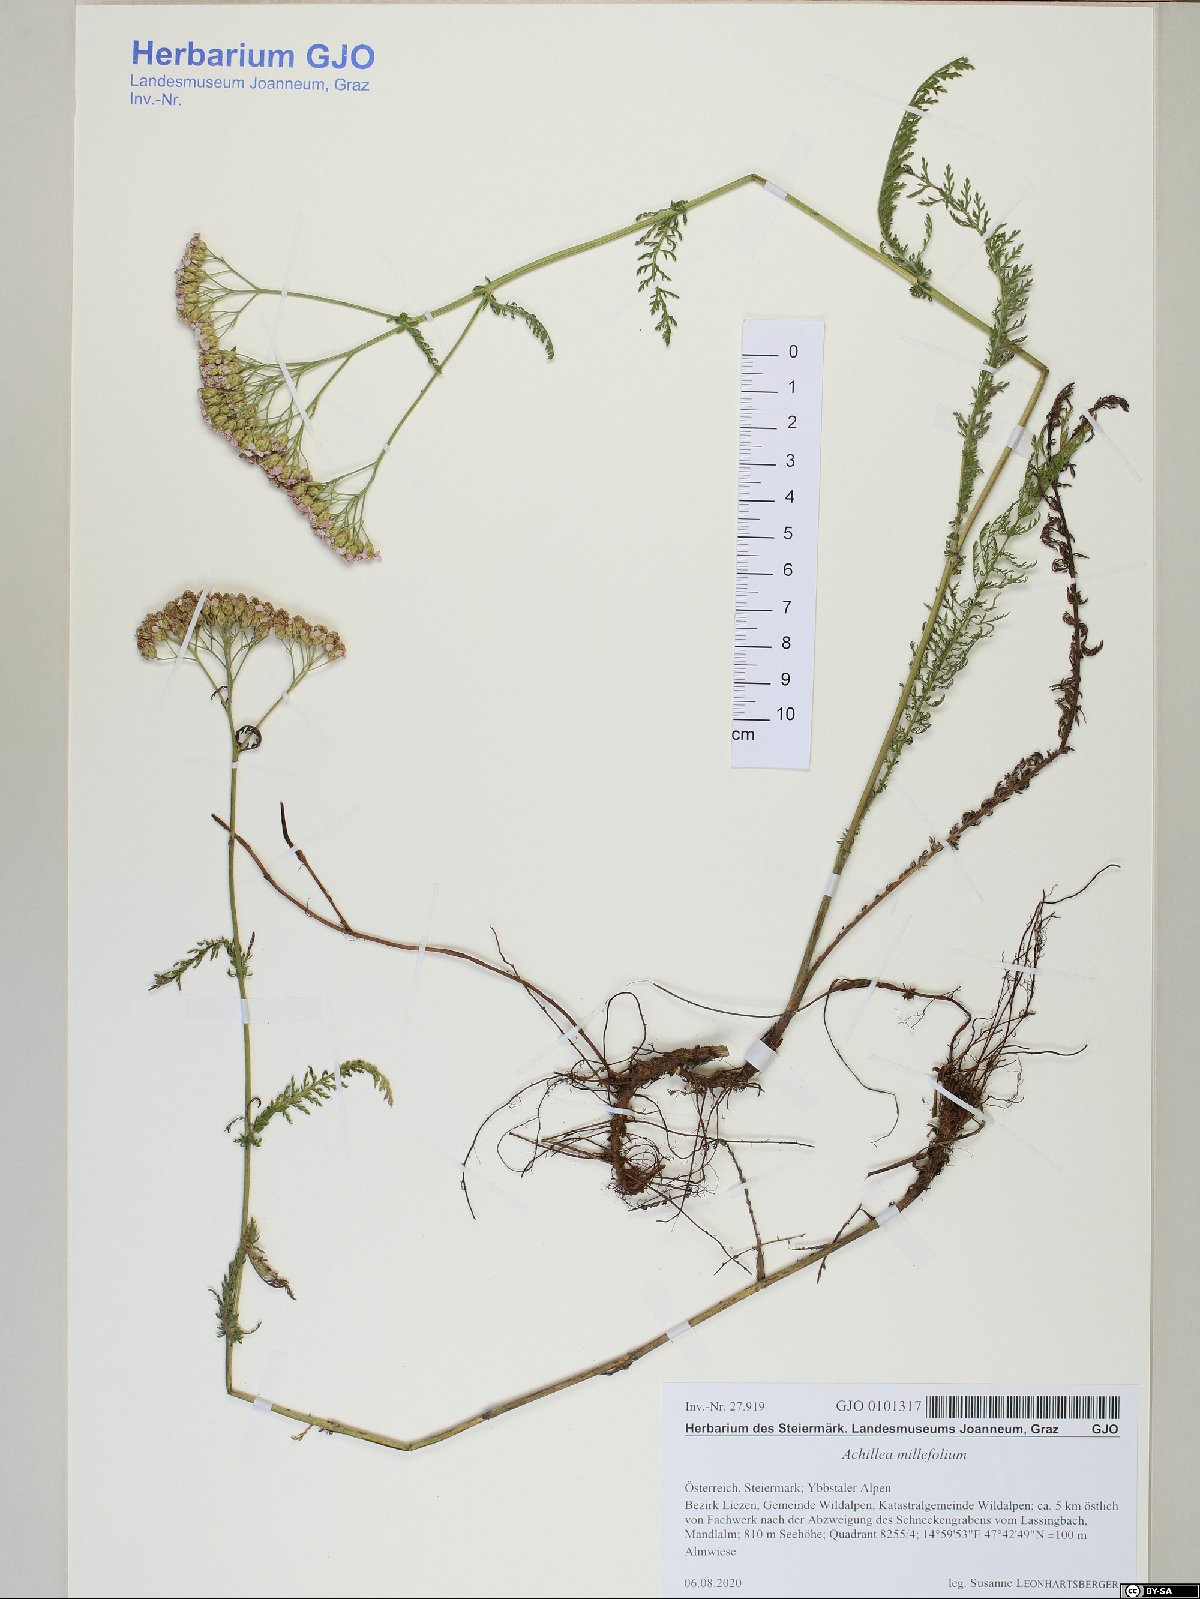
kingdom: Plantae
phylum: Tracheophyta
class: Magnoliopsida
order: Asterales
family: Asteraceae
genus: Achillea
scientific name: Achillea millefolium
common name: Yarrow
